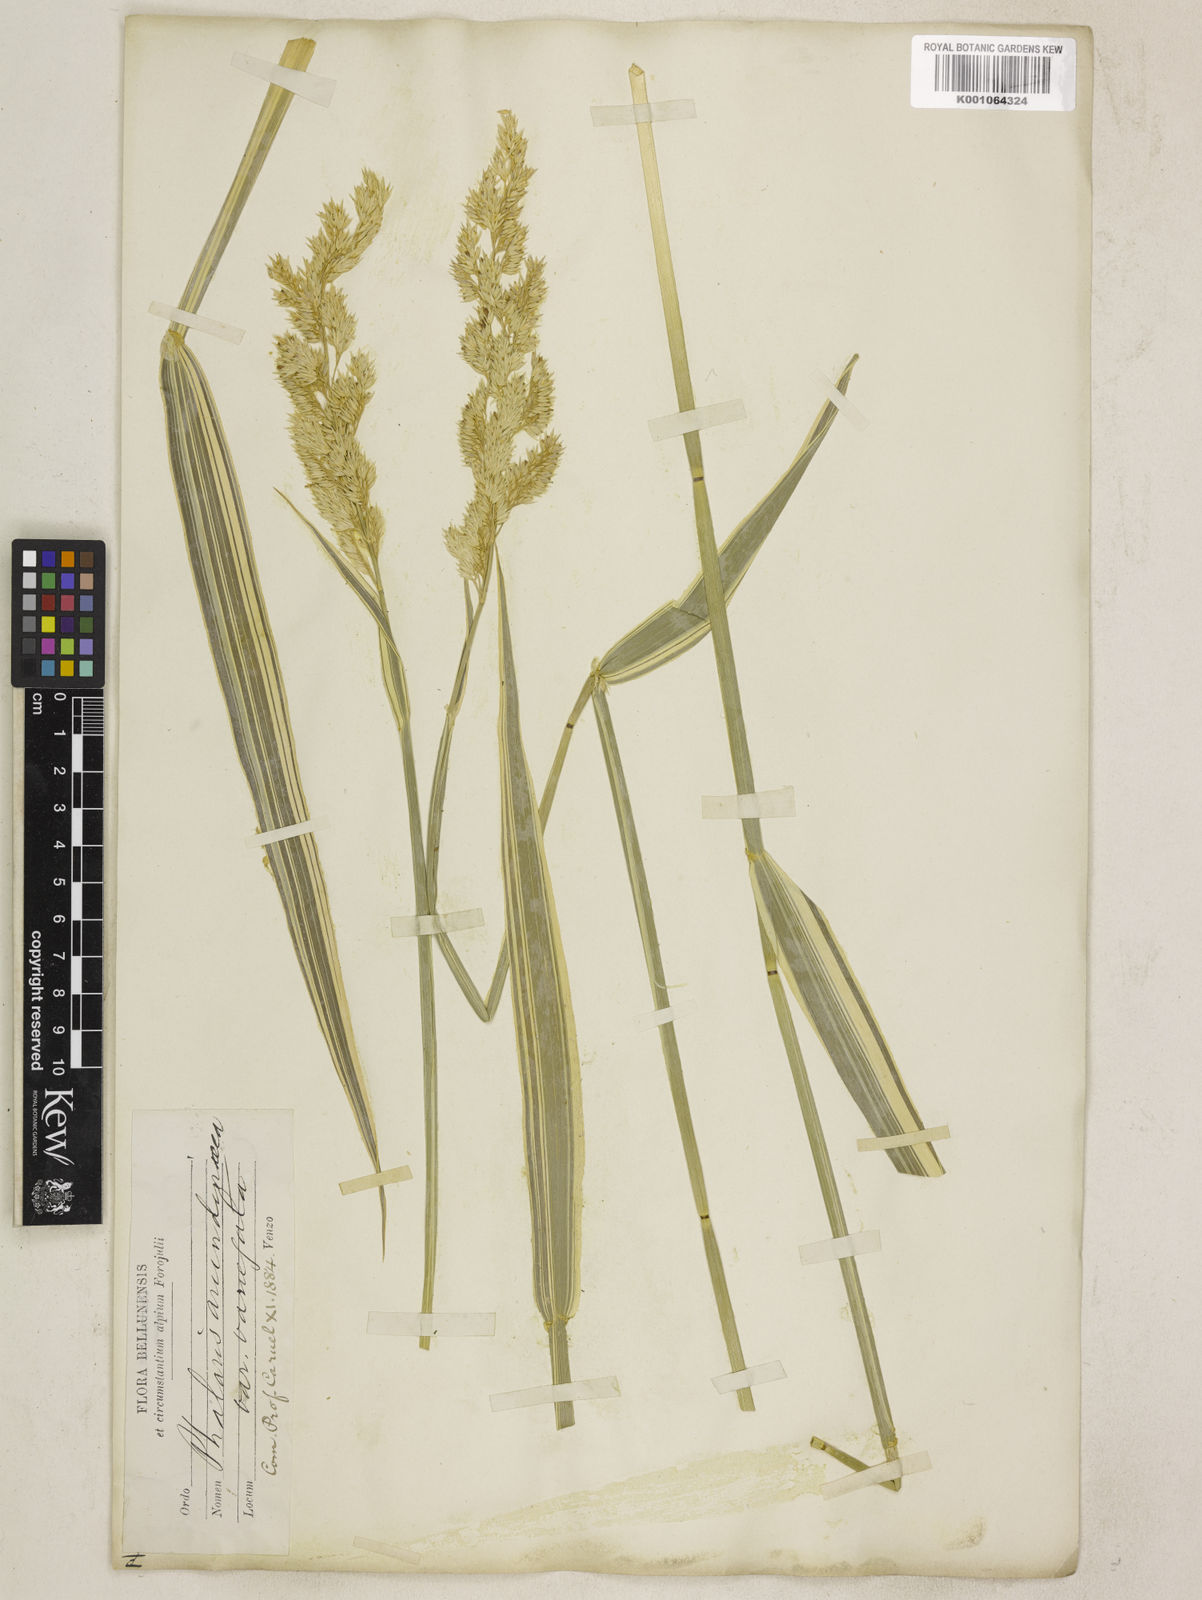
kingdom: Plantae
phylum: Tracheophyta
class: Liliopsida
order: Poales
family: Poaceae
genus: Phalaris
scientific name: Phalaris arundinacea
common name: Reed canary-grass
